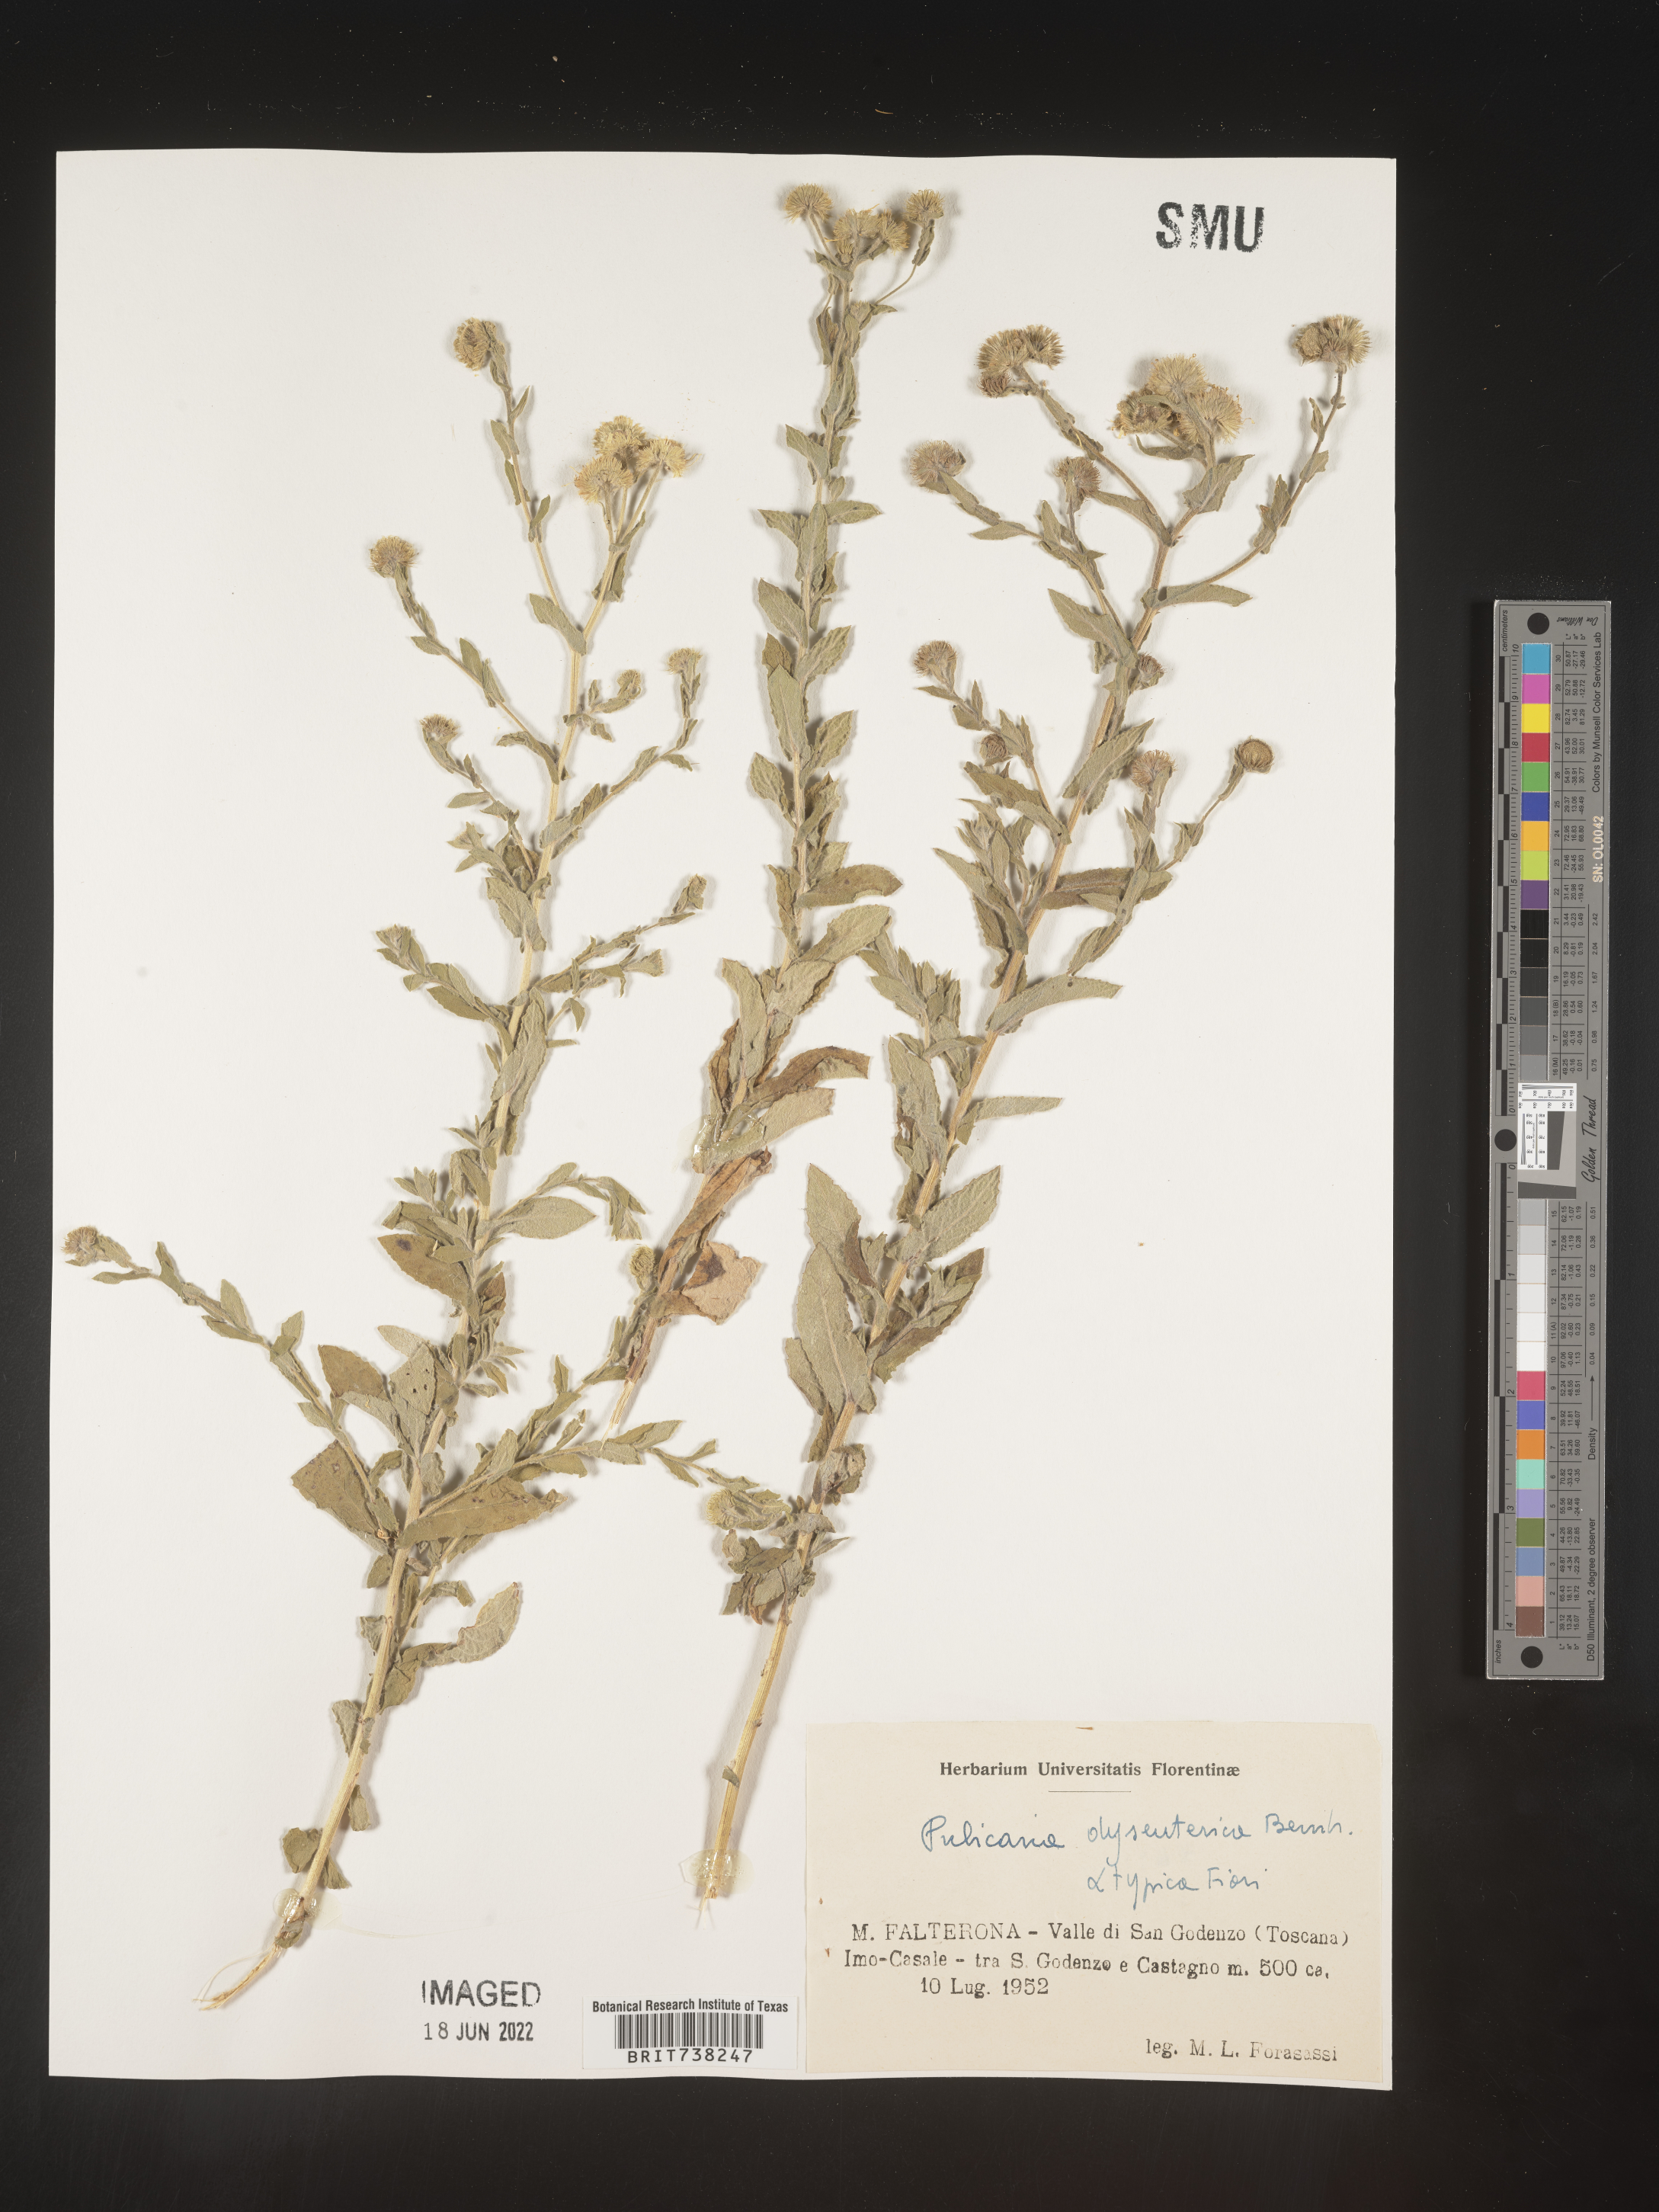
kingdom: Plantae
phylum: Tracheophyta
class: Magnoliopsida
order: Asterales
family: Asteraceae
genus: Pulicaria
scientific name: Pulicaria
